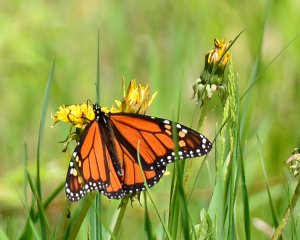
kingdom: Animalia
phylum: Arthropoda
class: Insecta
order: Lepidoptera
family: Nymphalidae
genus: Danaus
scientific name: Danaus plexippus
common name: Monarch
